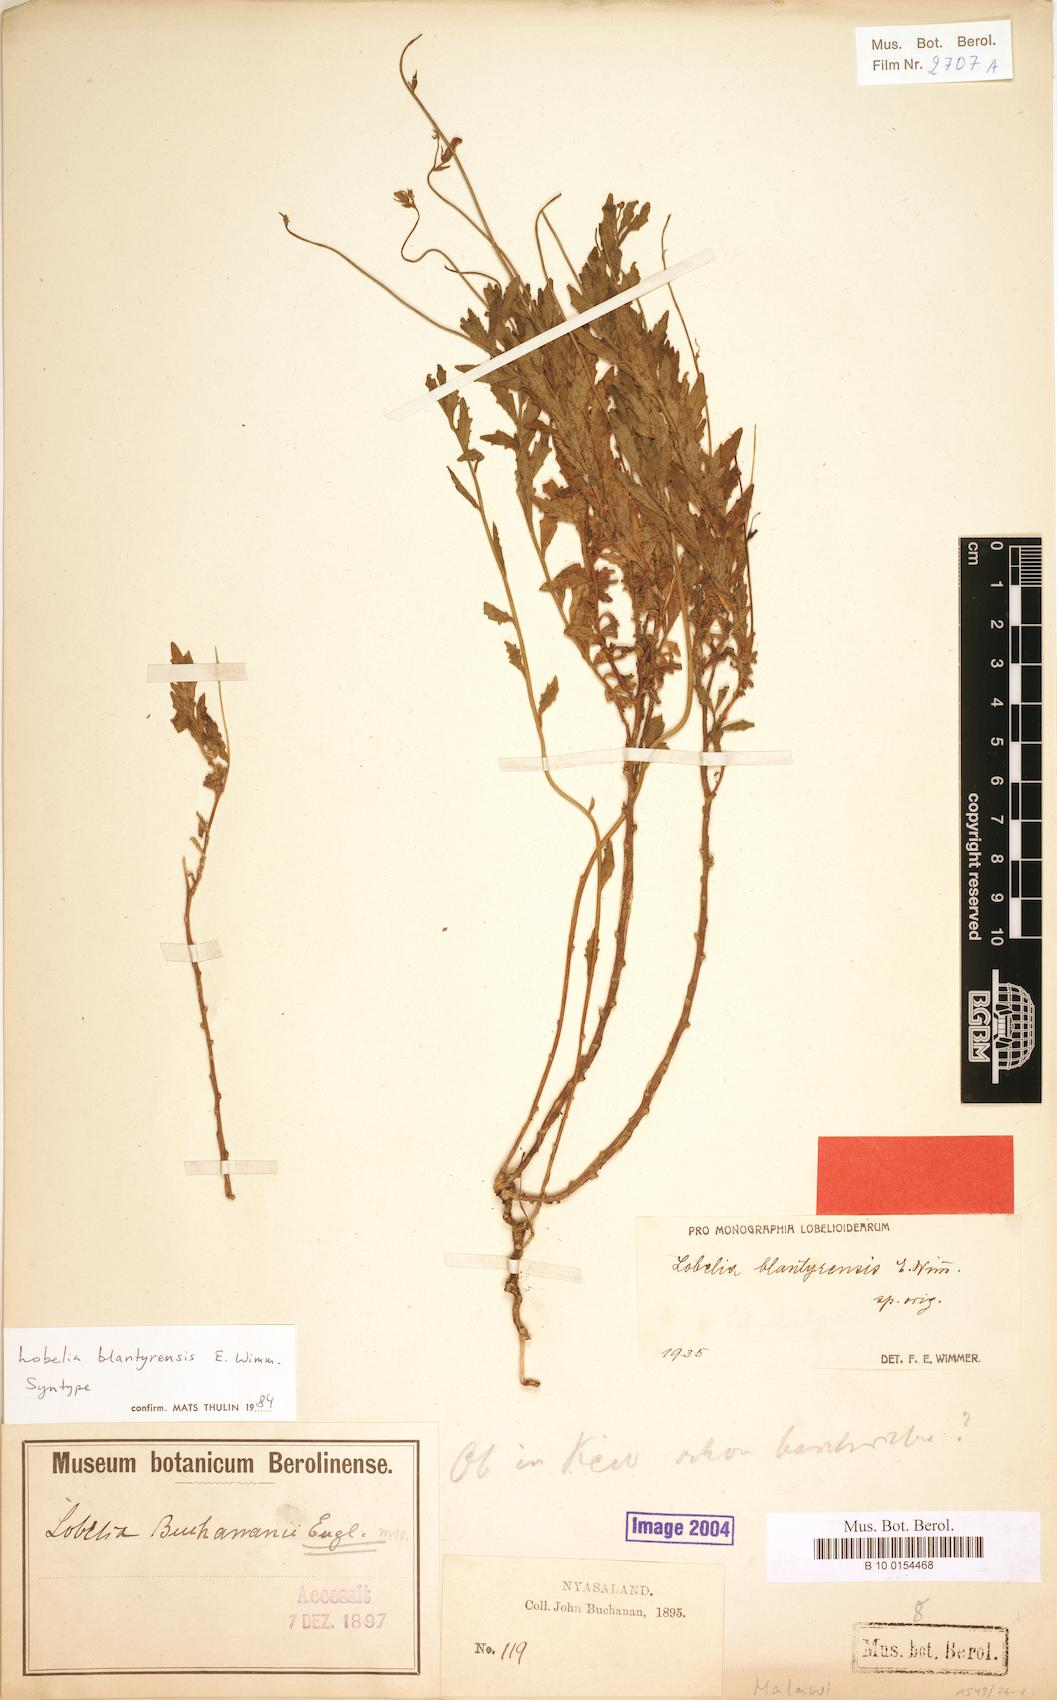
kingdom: Plantae
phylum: Tracheophyta
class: Magnoliopsida
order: Asterales
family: Campanulaceae
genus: Lobelia
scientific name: Lobelia blantyrensis
